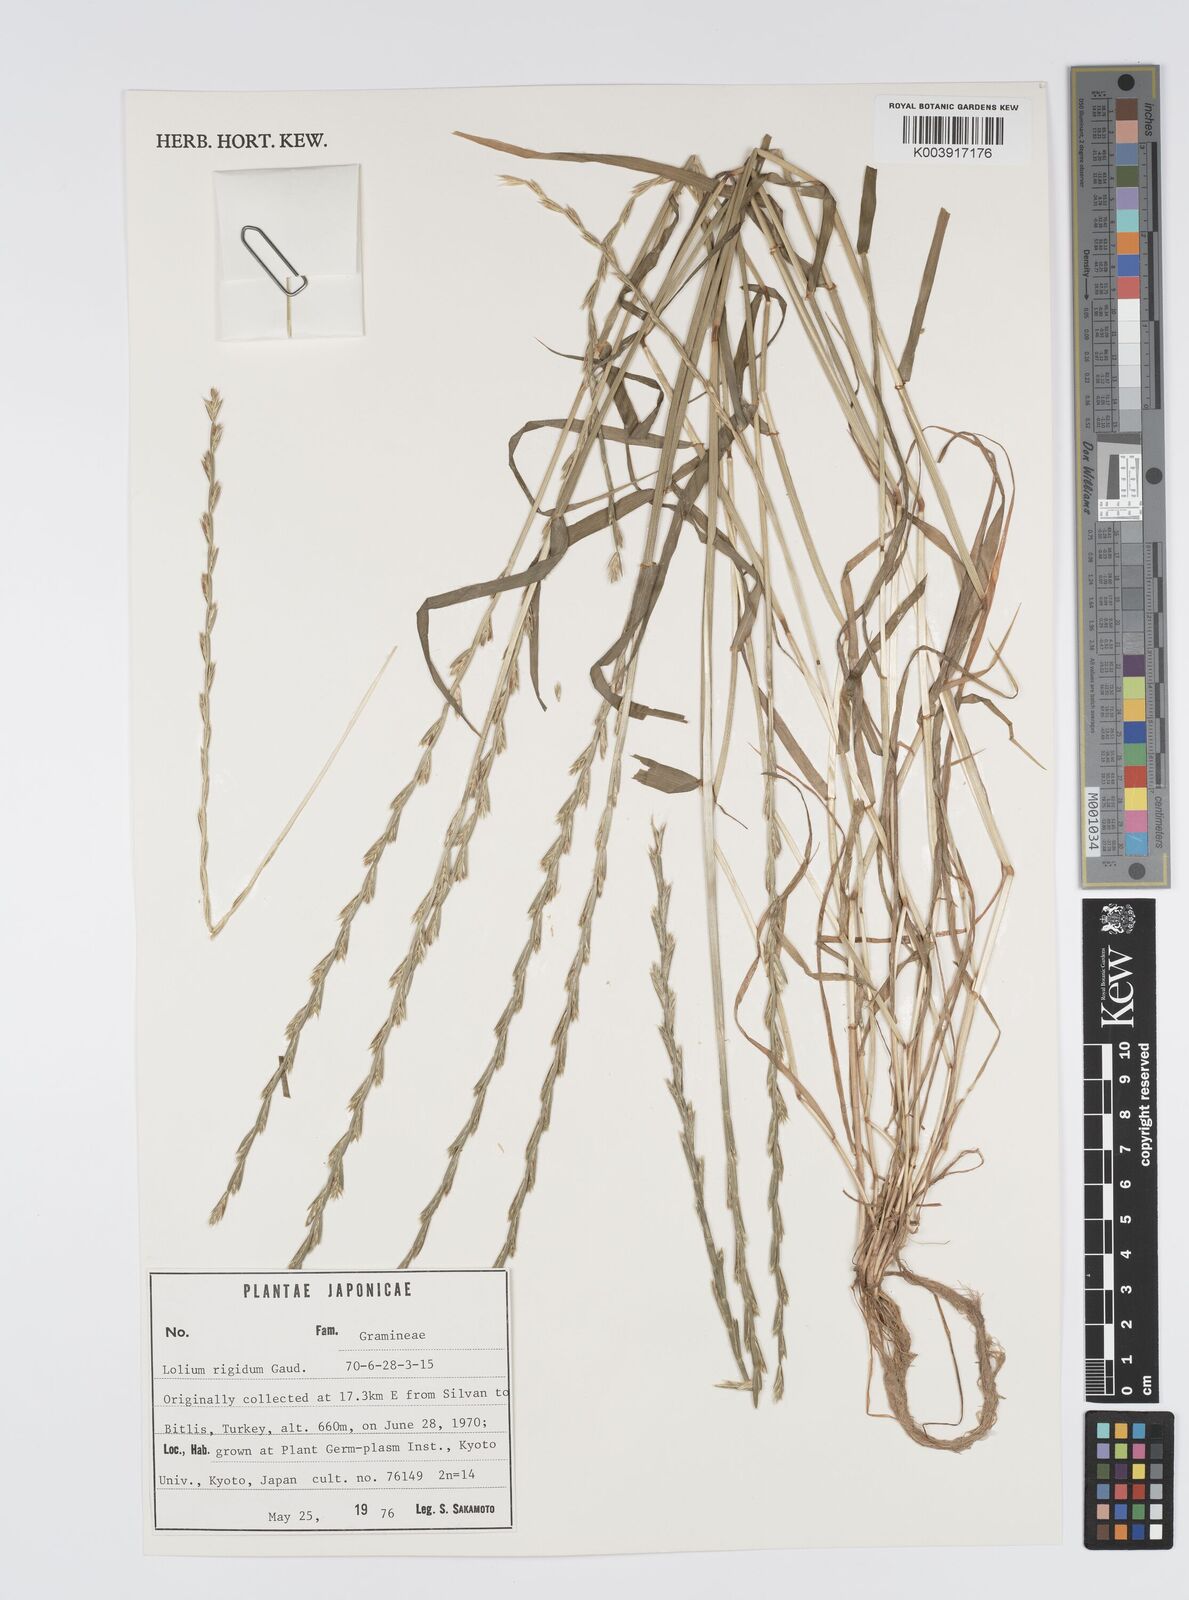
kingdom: Plantae
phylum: Tracheophyta
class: Liliopsida
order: Poales
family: Poaceae
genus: Lolium
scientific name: Lolium rigidum
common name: Wimmera ryegrass
